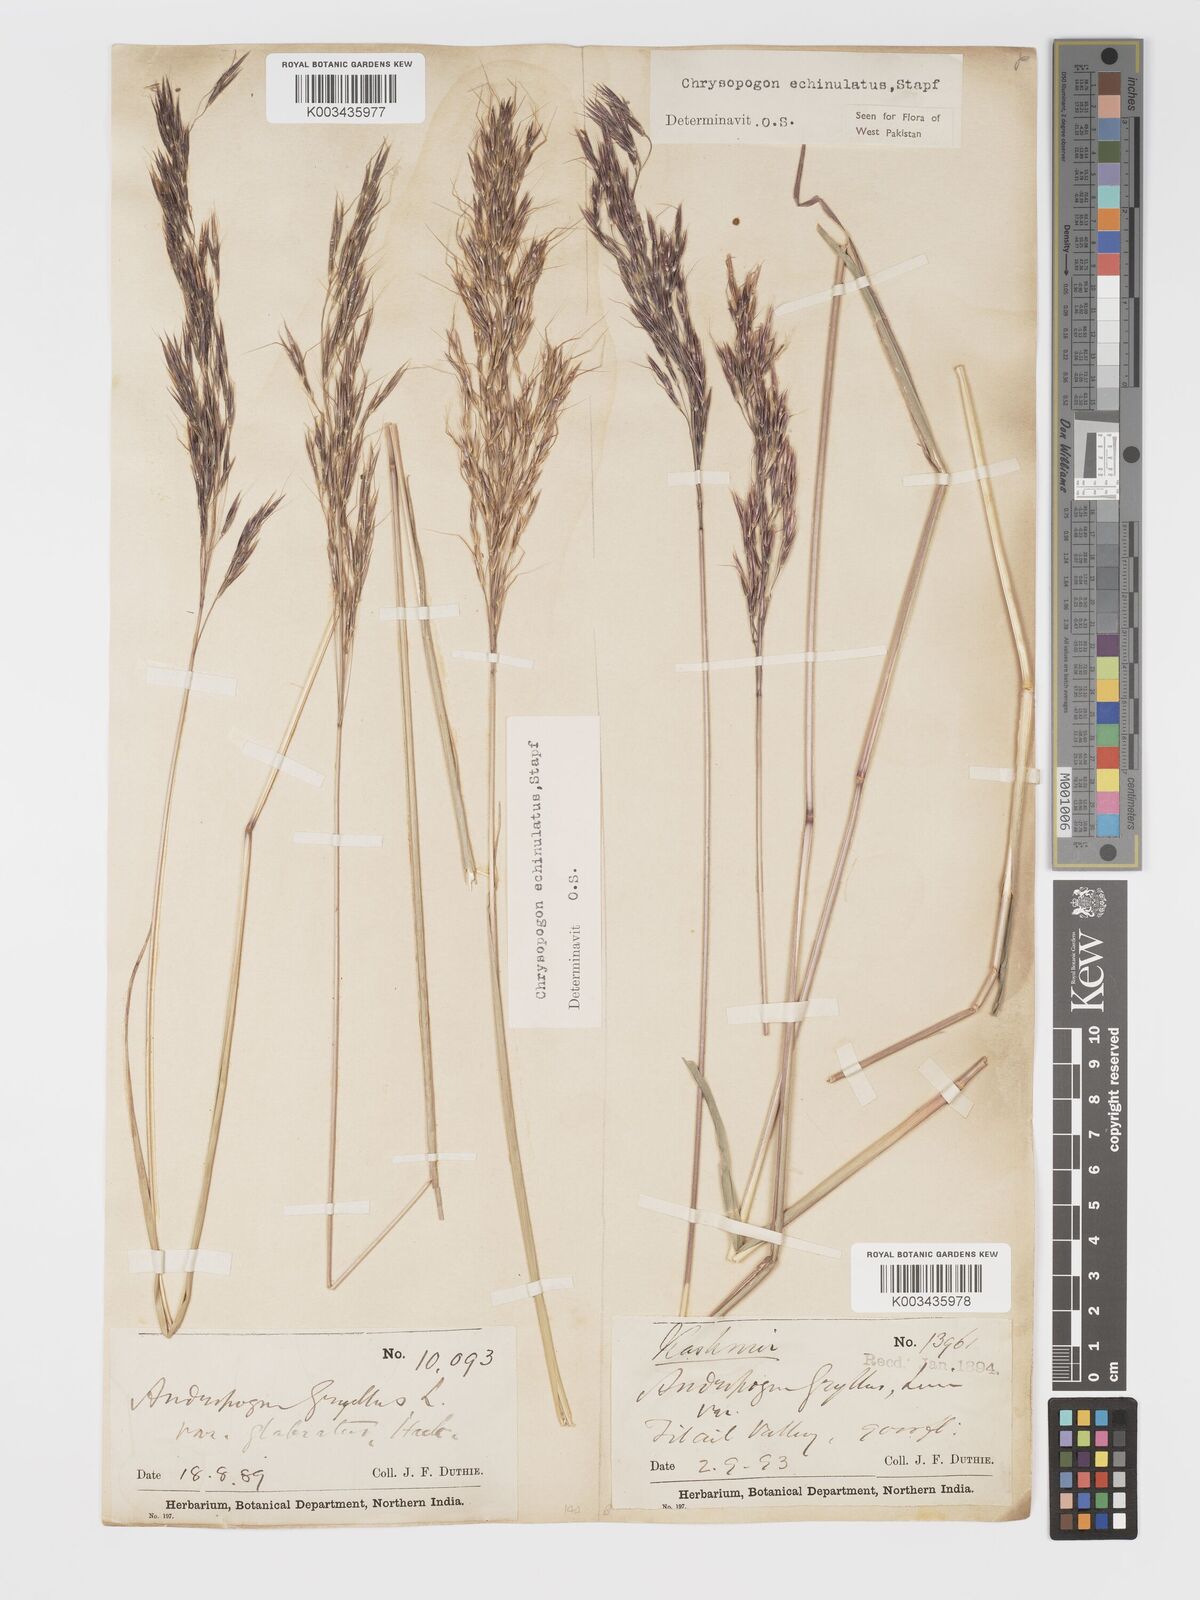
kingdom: Plantae
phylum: Tracheophyta
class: Liliopsida
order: Poales
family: Poaceae
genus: Chrysopogon
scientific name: Chrysopogon gryllus
